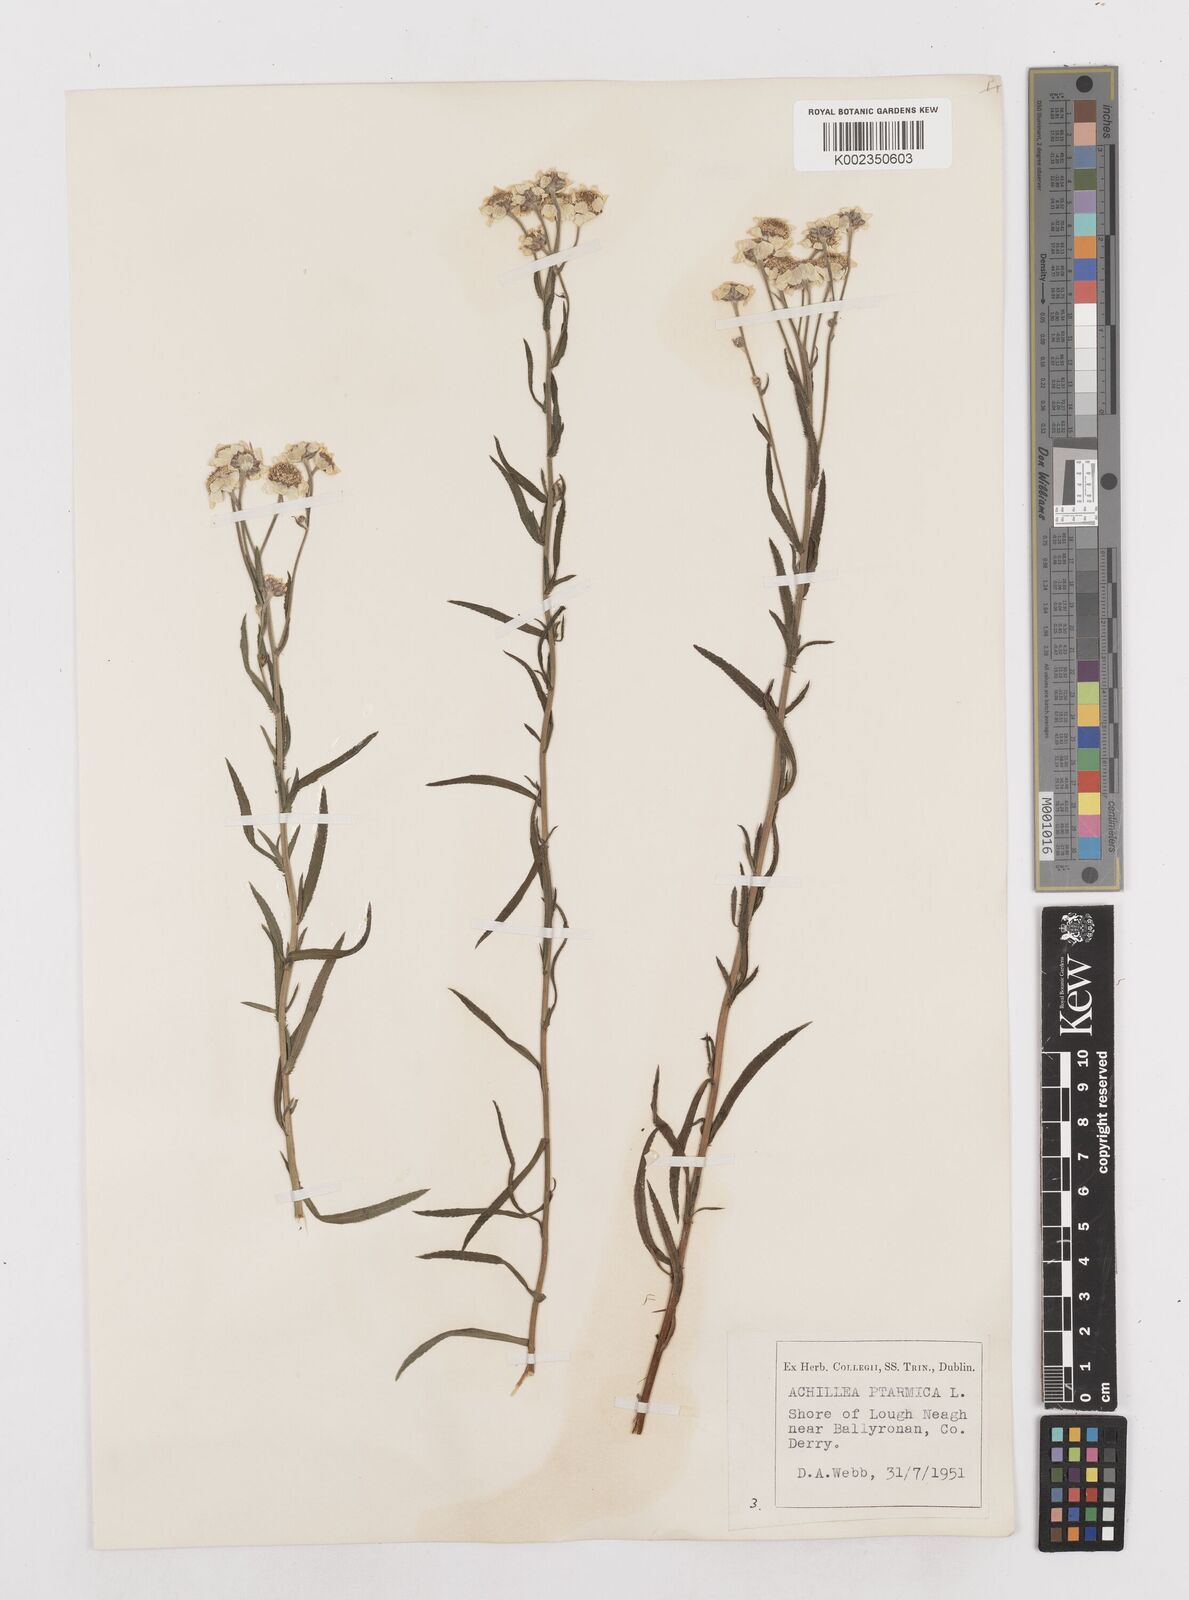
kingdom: Plantae
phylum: Tracheophyta
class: Magnoliopsida
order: Asterales
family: Asteraceae
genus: Achillea
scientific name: Achillea ptarmica
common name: Sneezeweed
